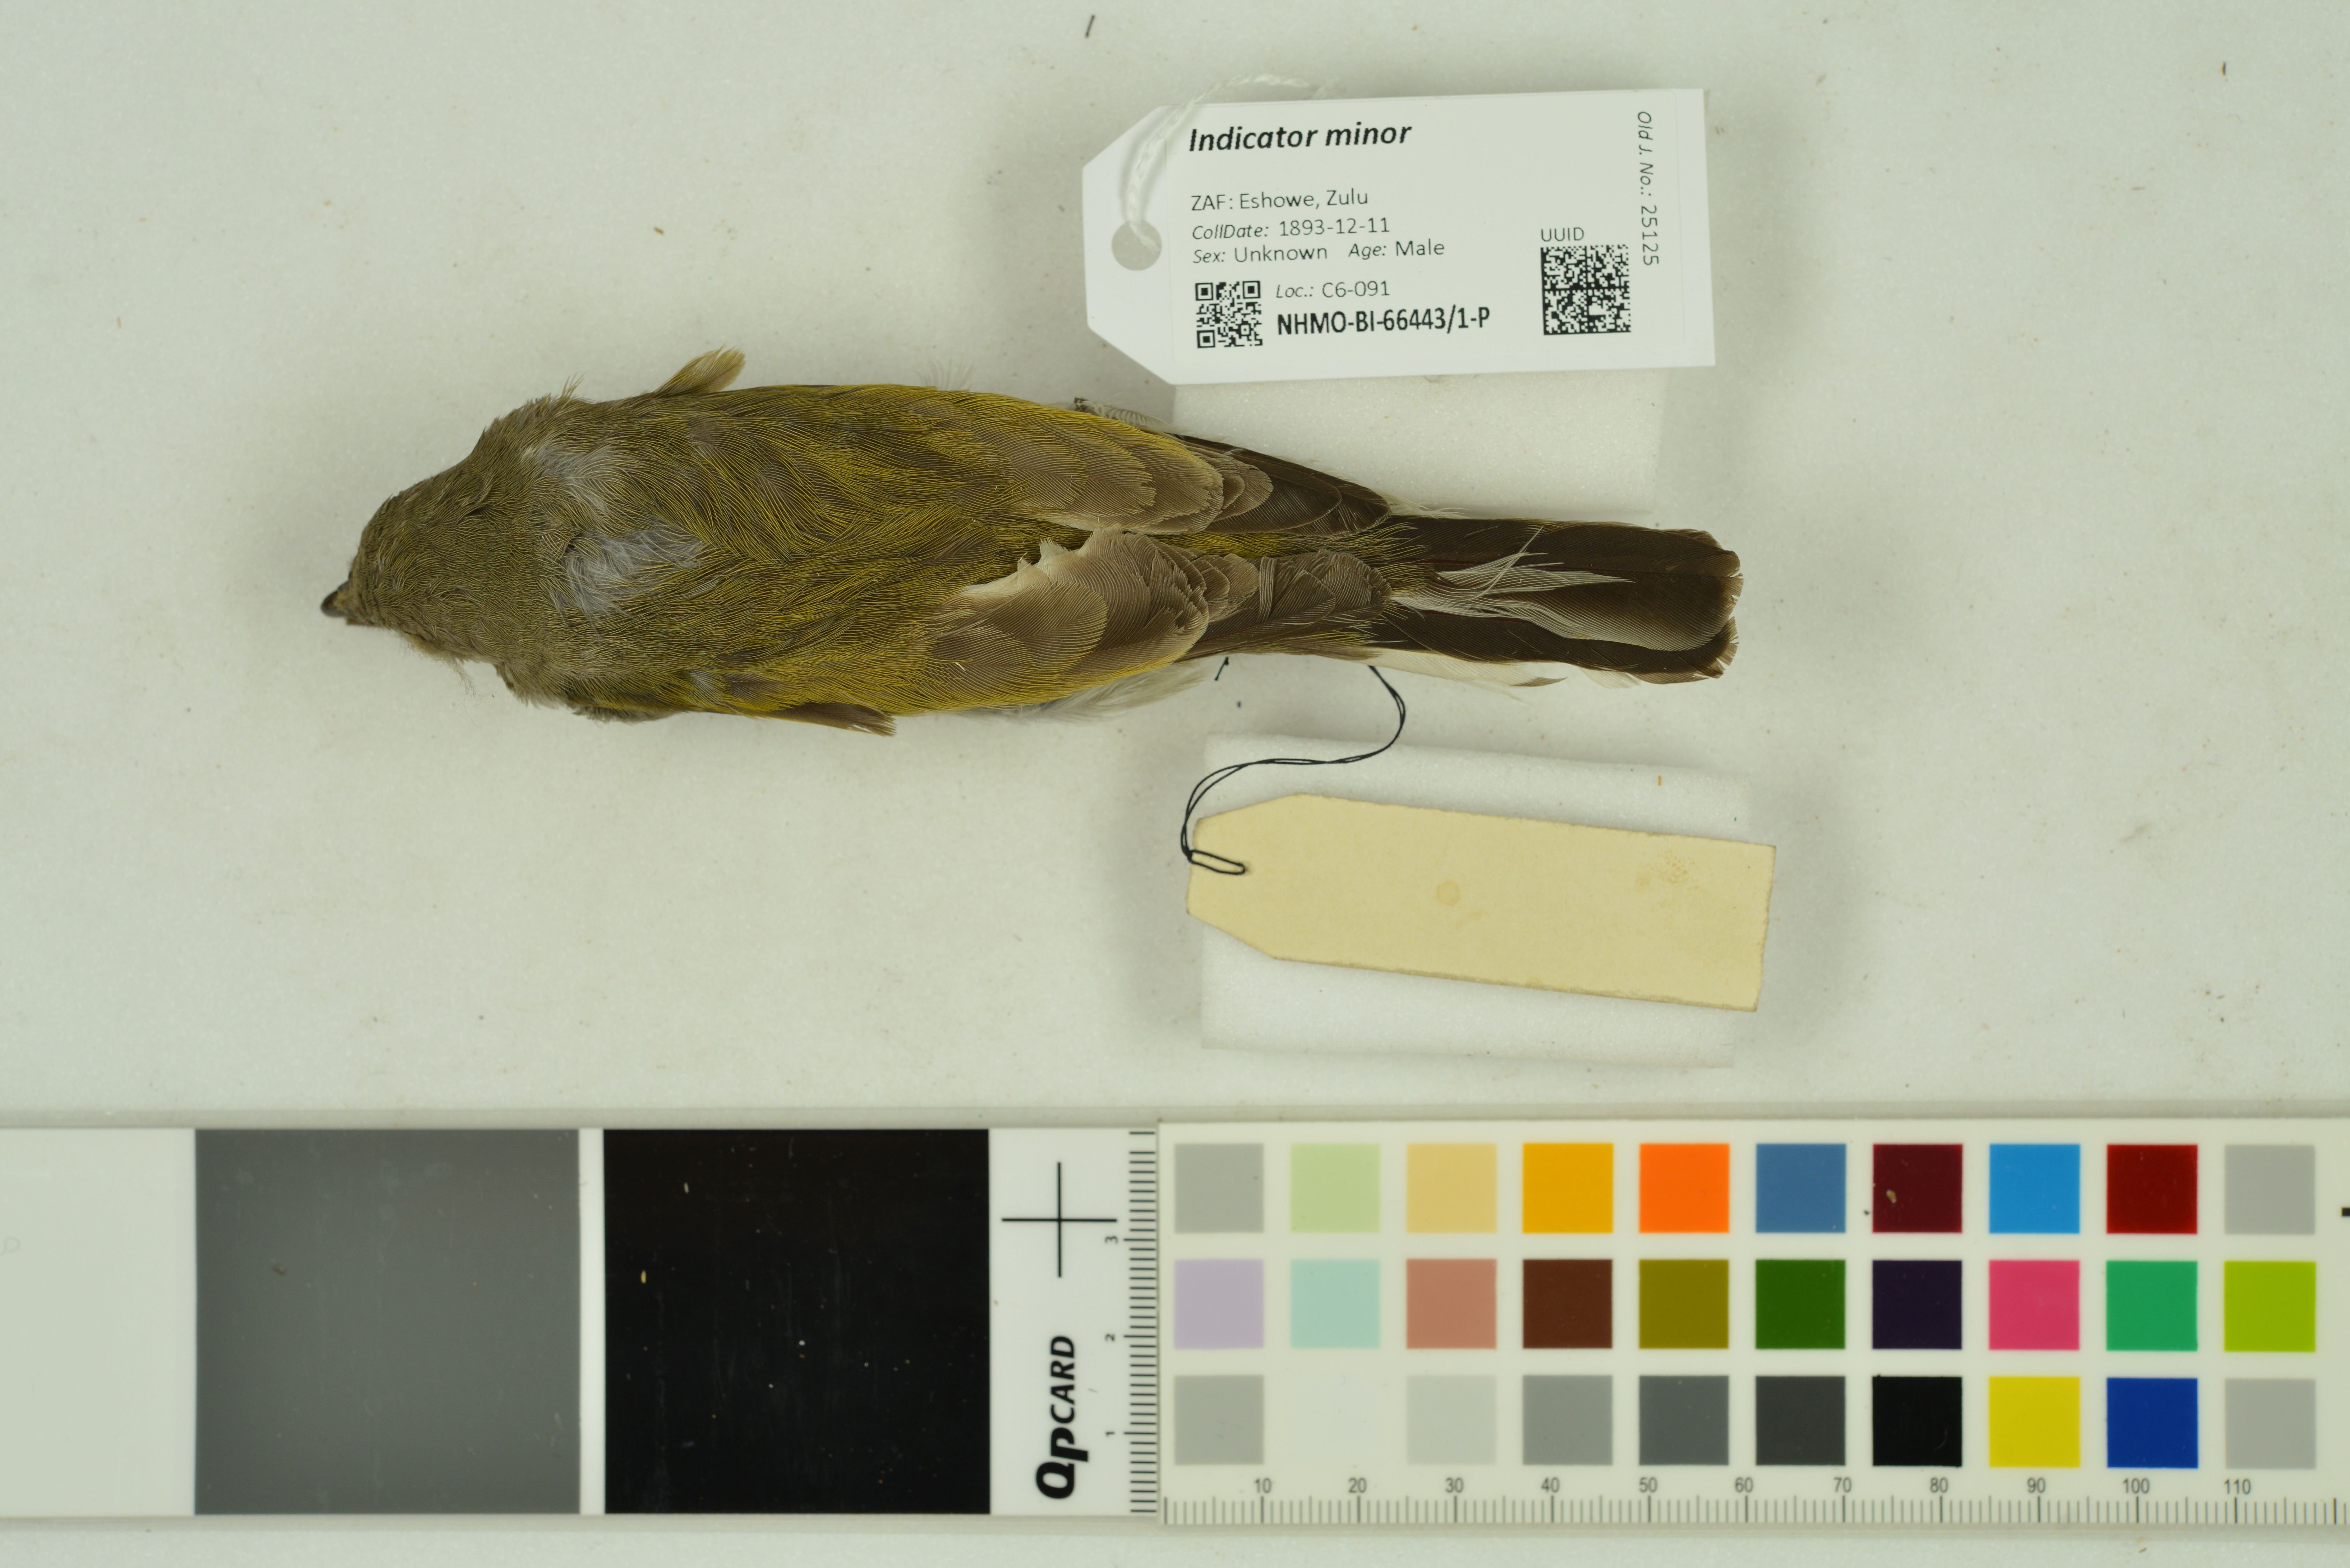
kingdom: Animalia
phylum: Chordata
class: Aves
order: Piciformes
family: Indicatoridae
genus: Indicator
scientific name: Indicator minor
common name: Lesser honeyguide
